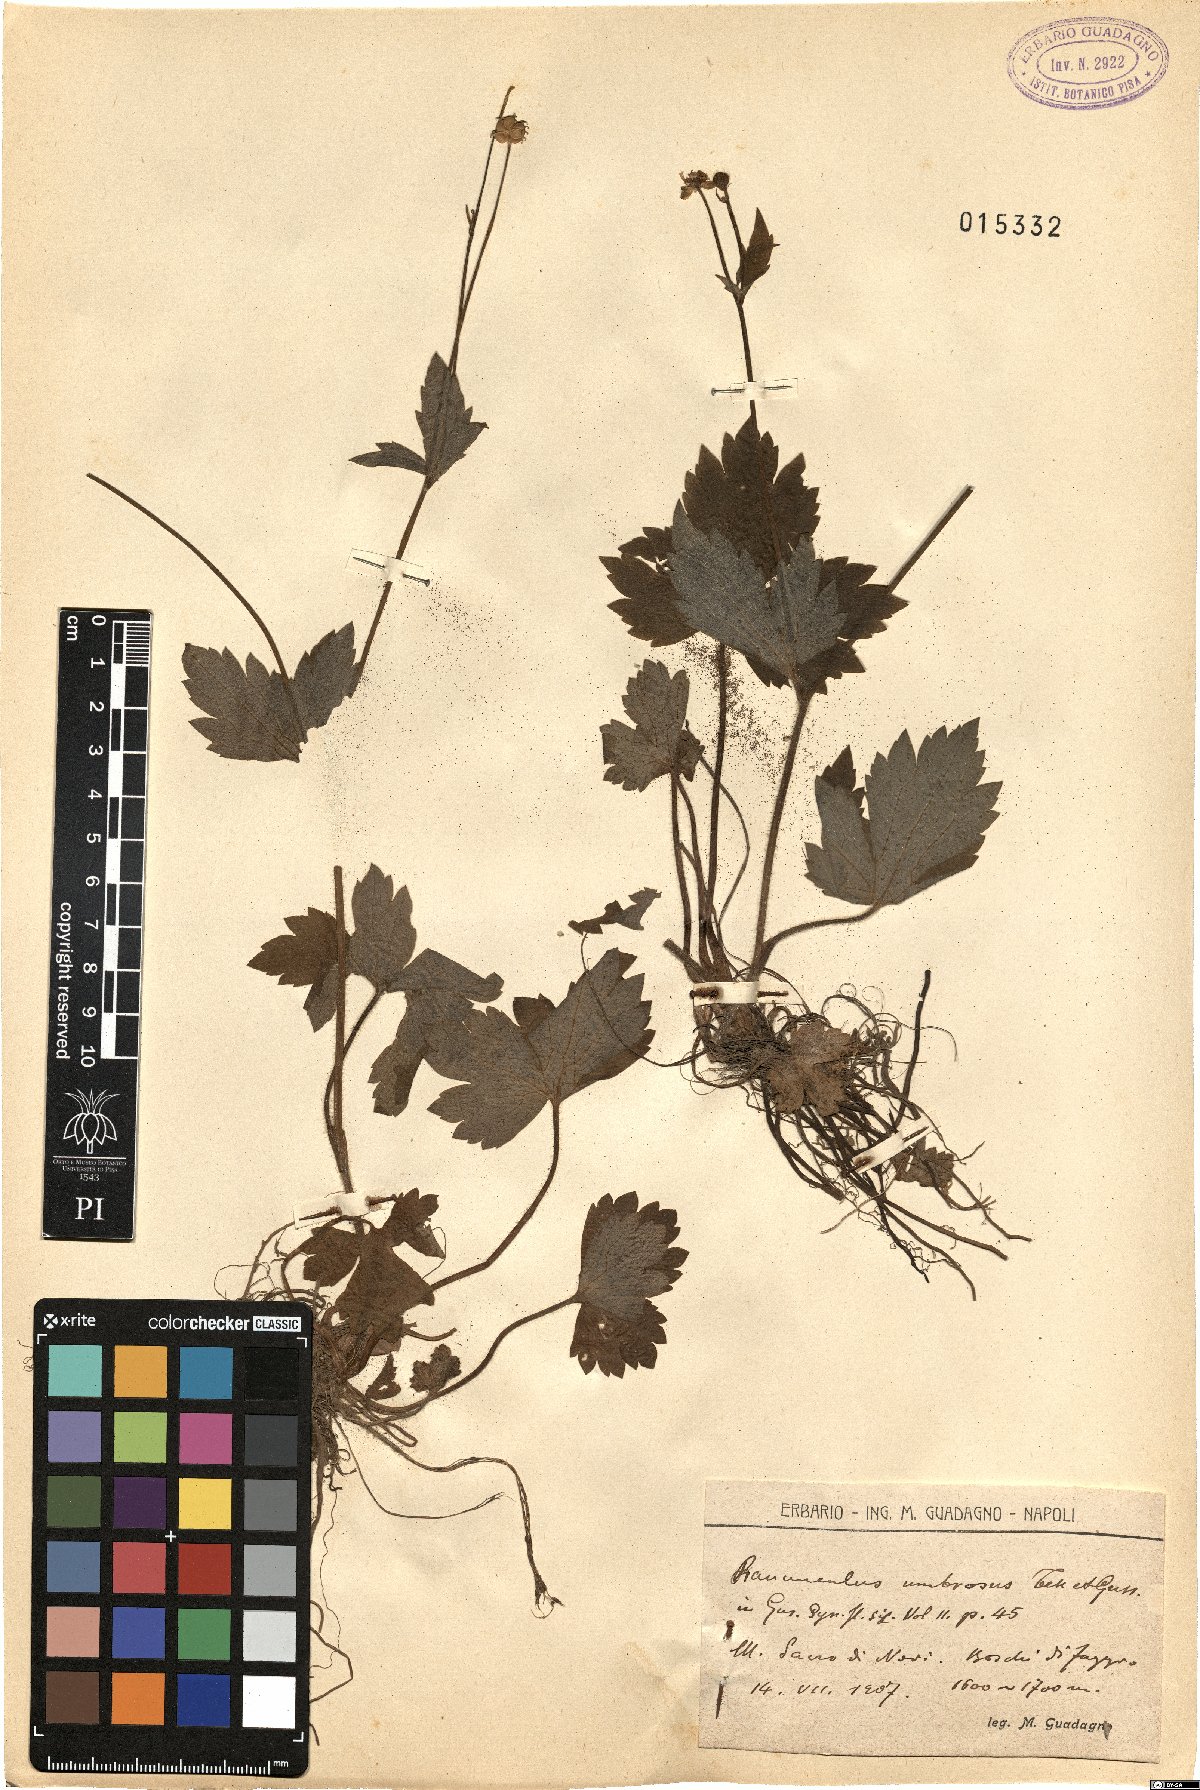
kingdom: Plantae
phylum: Tracheophyta
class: Magnoliopsida
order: Ranunculales
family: Ranunculaceae
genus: Ranunculus
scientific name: Ranunculus lanuginosus
